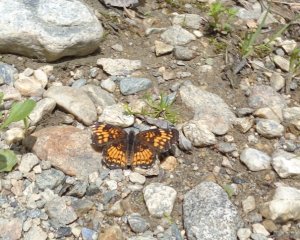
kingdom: Animalia
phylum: Arthropoda
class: Insecta
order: Lepidoptera
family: Nymphalidae
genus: Chlosyne
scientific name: Chlosyne harrisii
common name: Harris's Checkerspot
